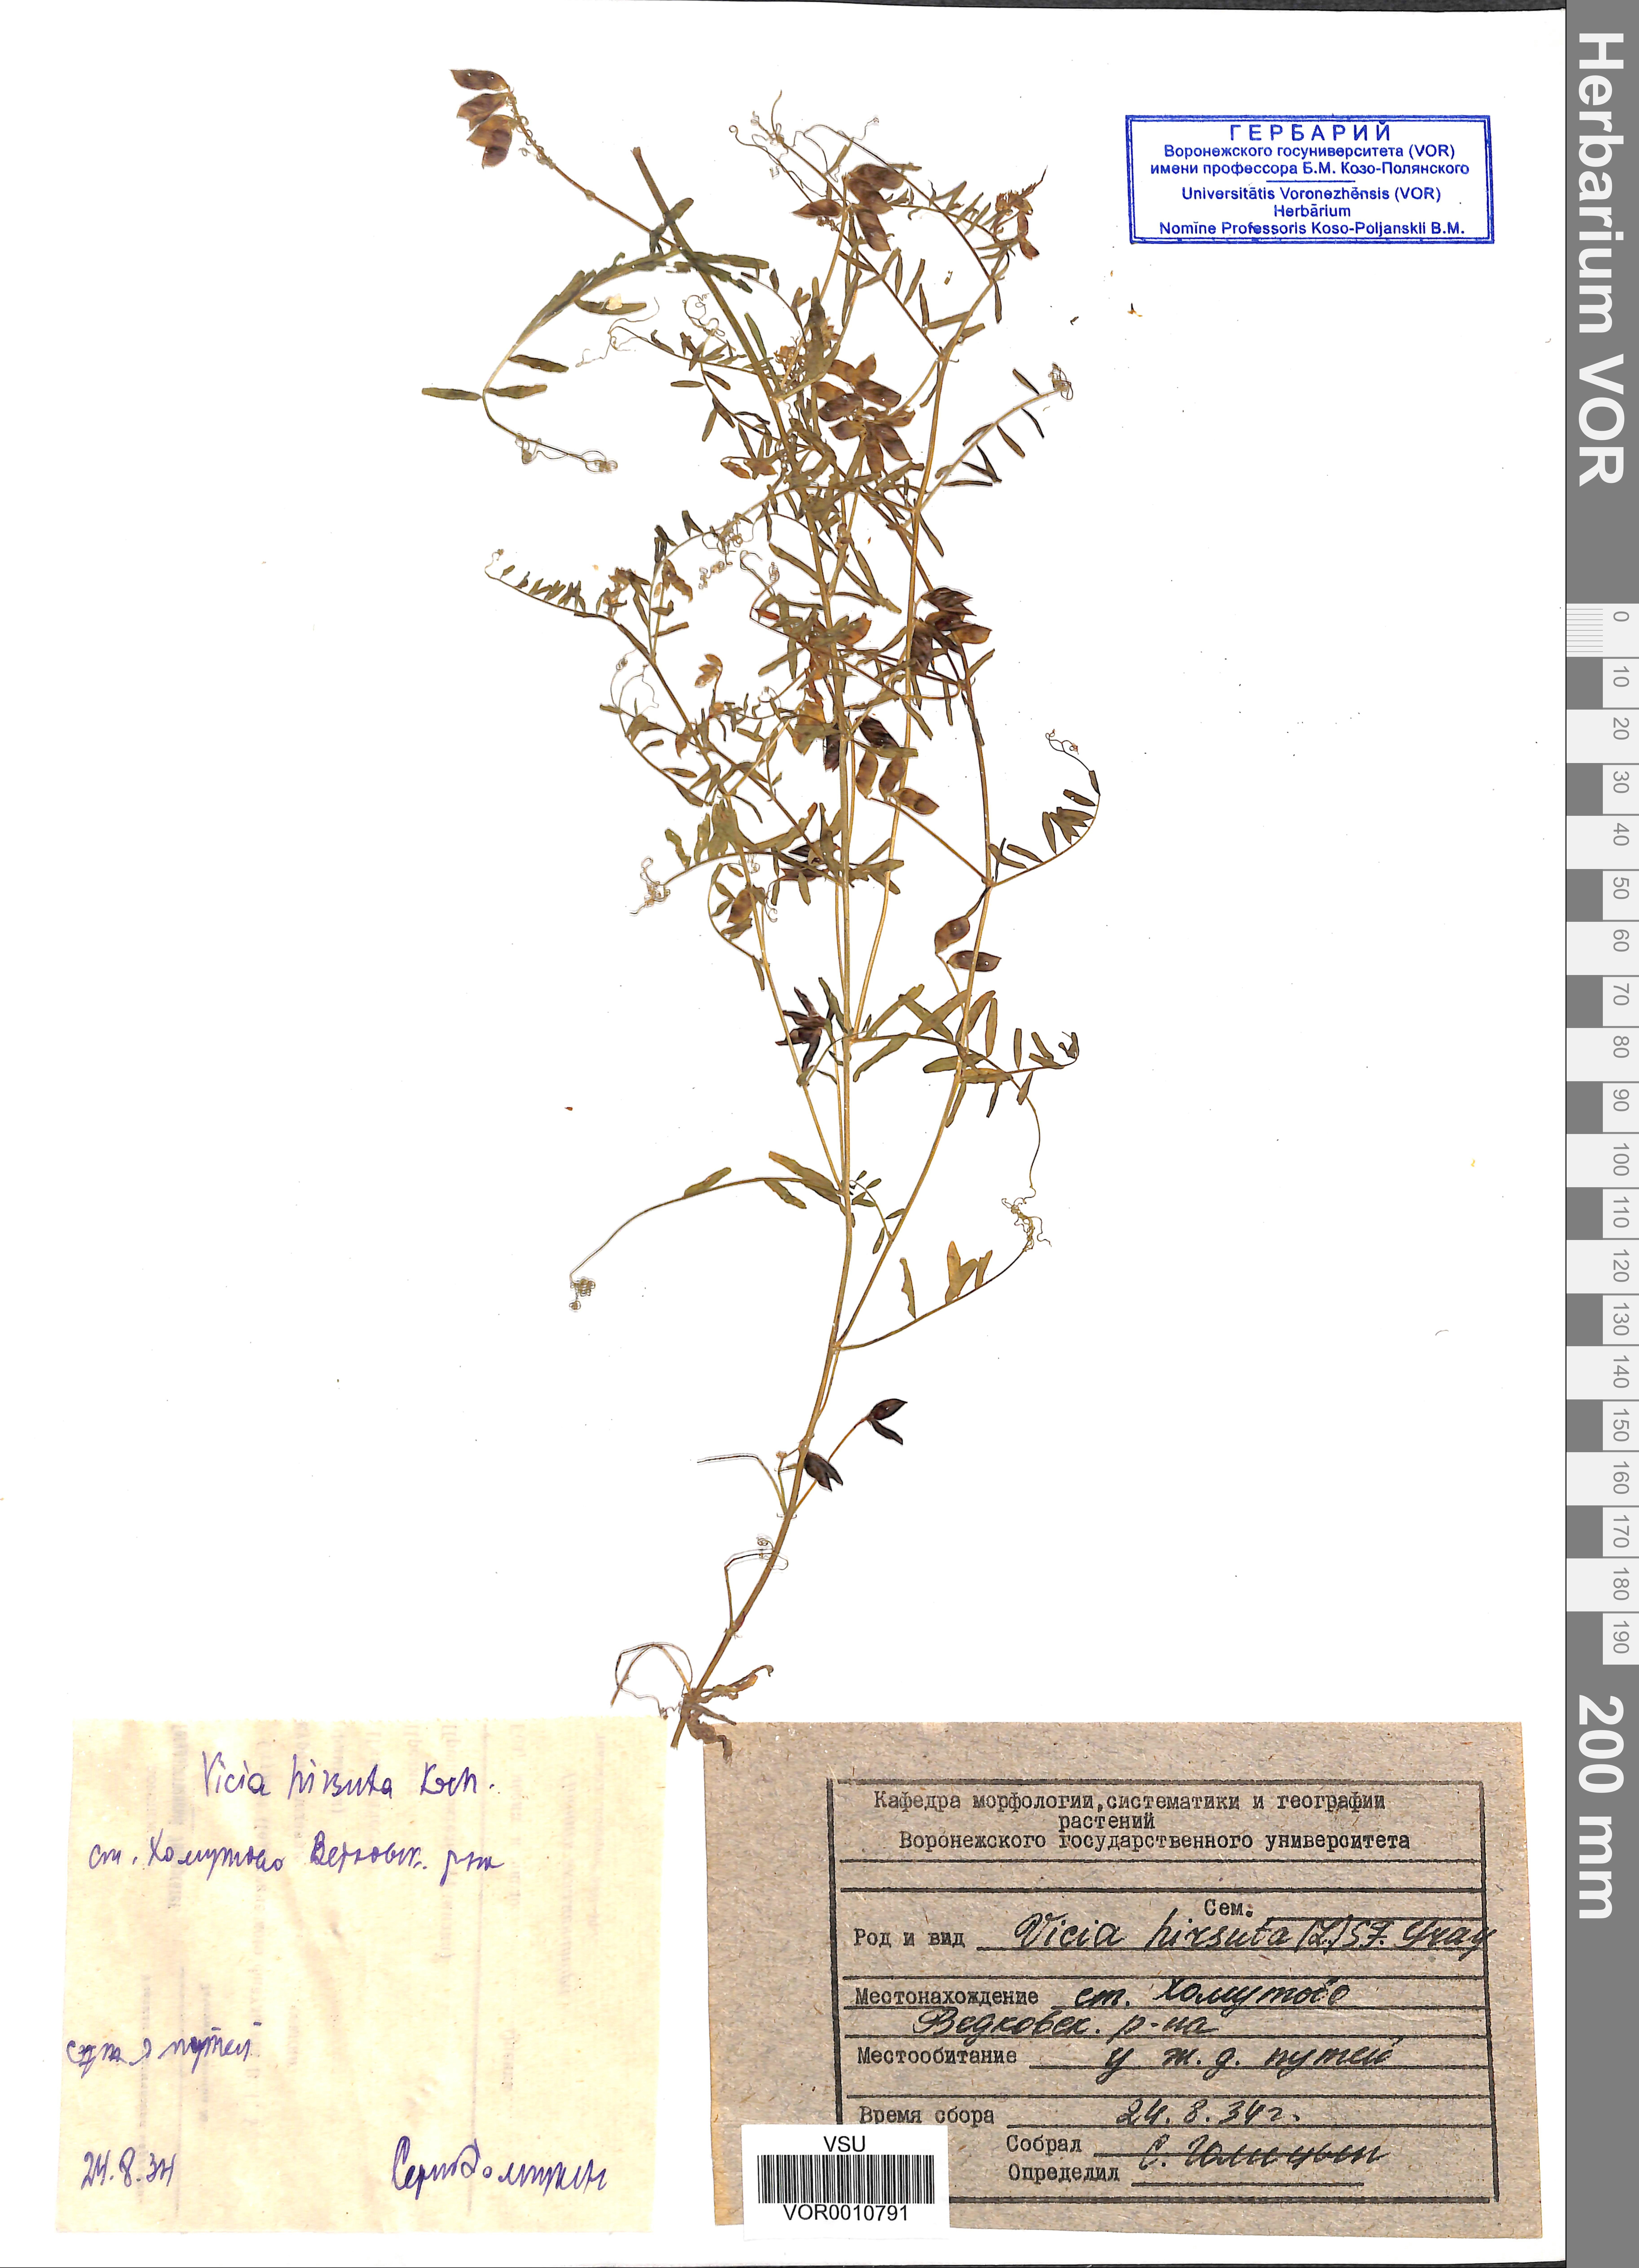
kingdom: Plantae
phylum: Tracheophyta
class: Magnoliopsida
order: Fabales
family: Fabaceae
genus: Vicia
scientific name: Vicia hirsuta
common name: Tiny vetch
